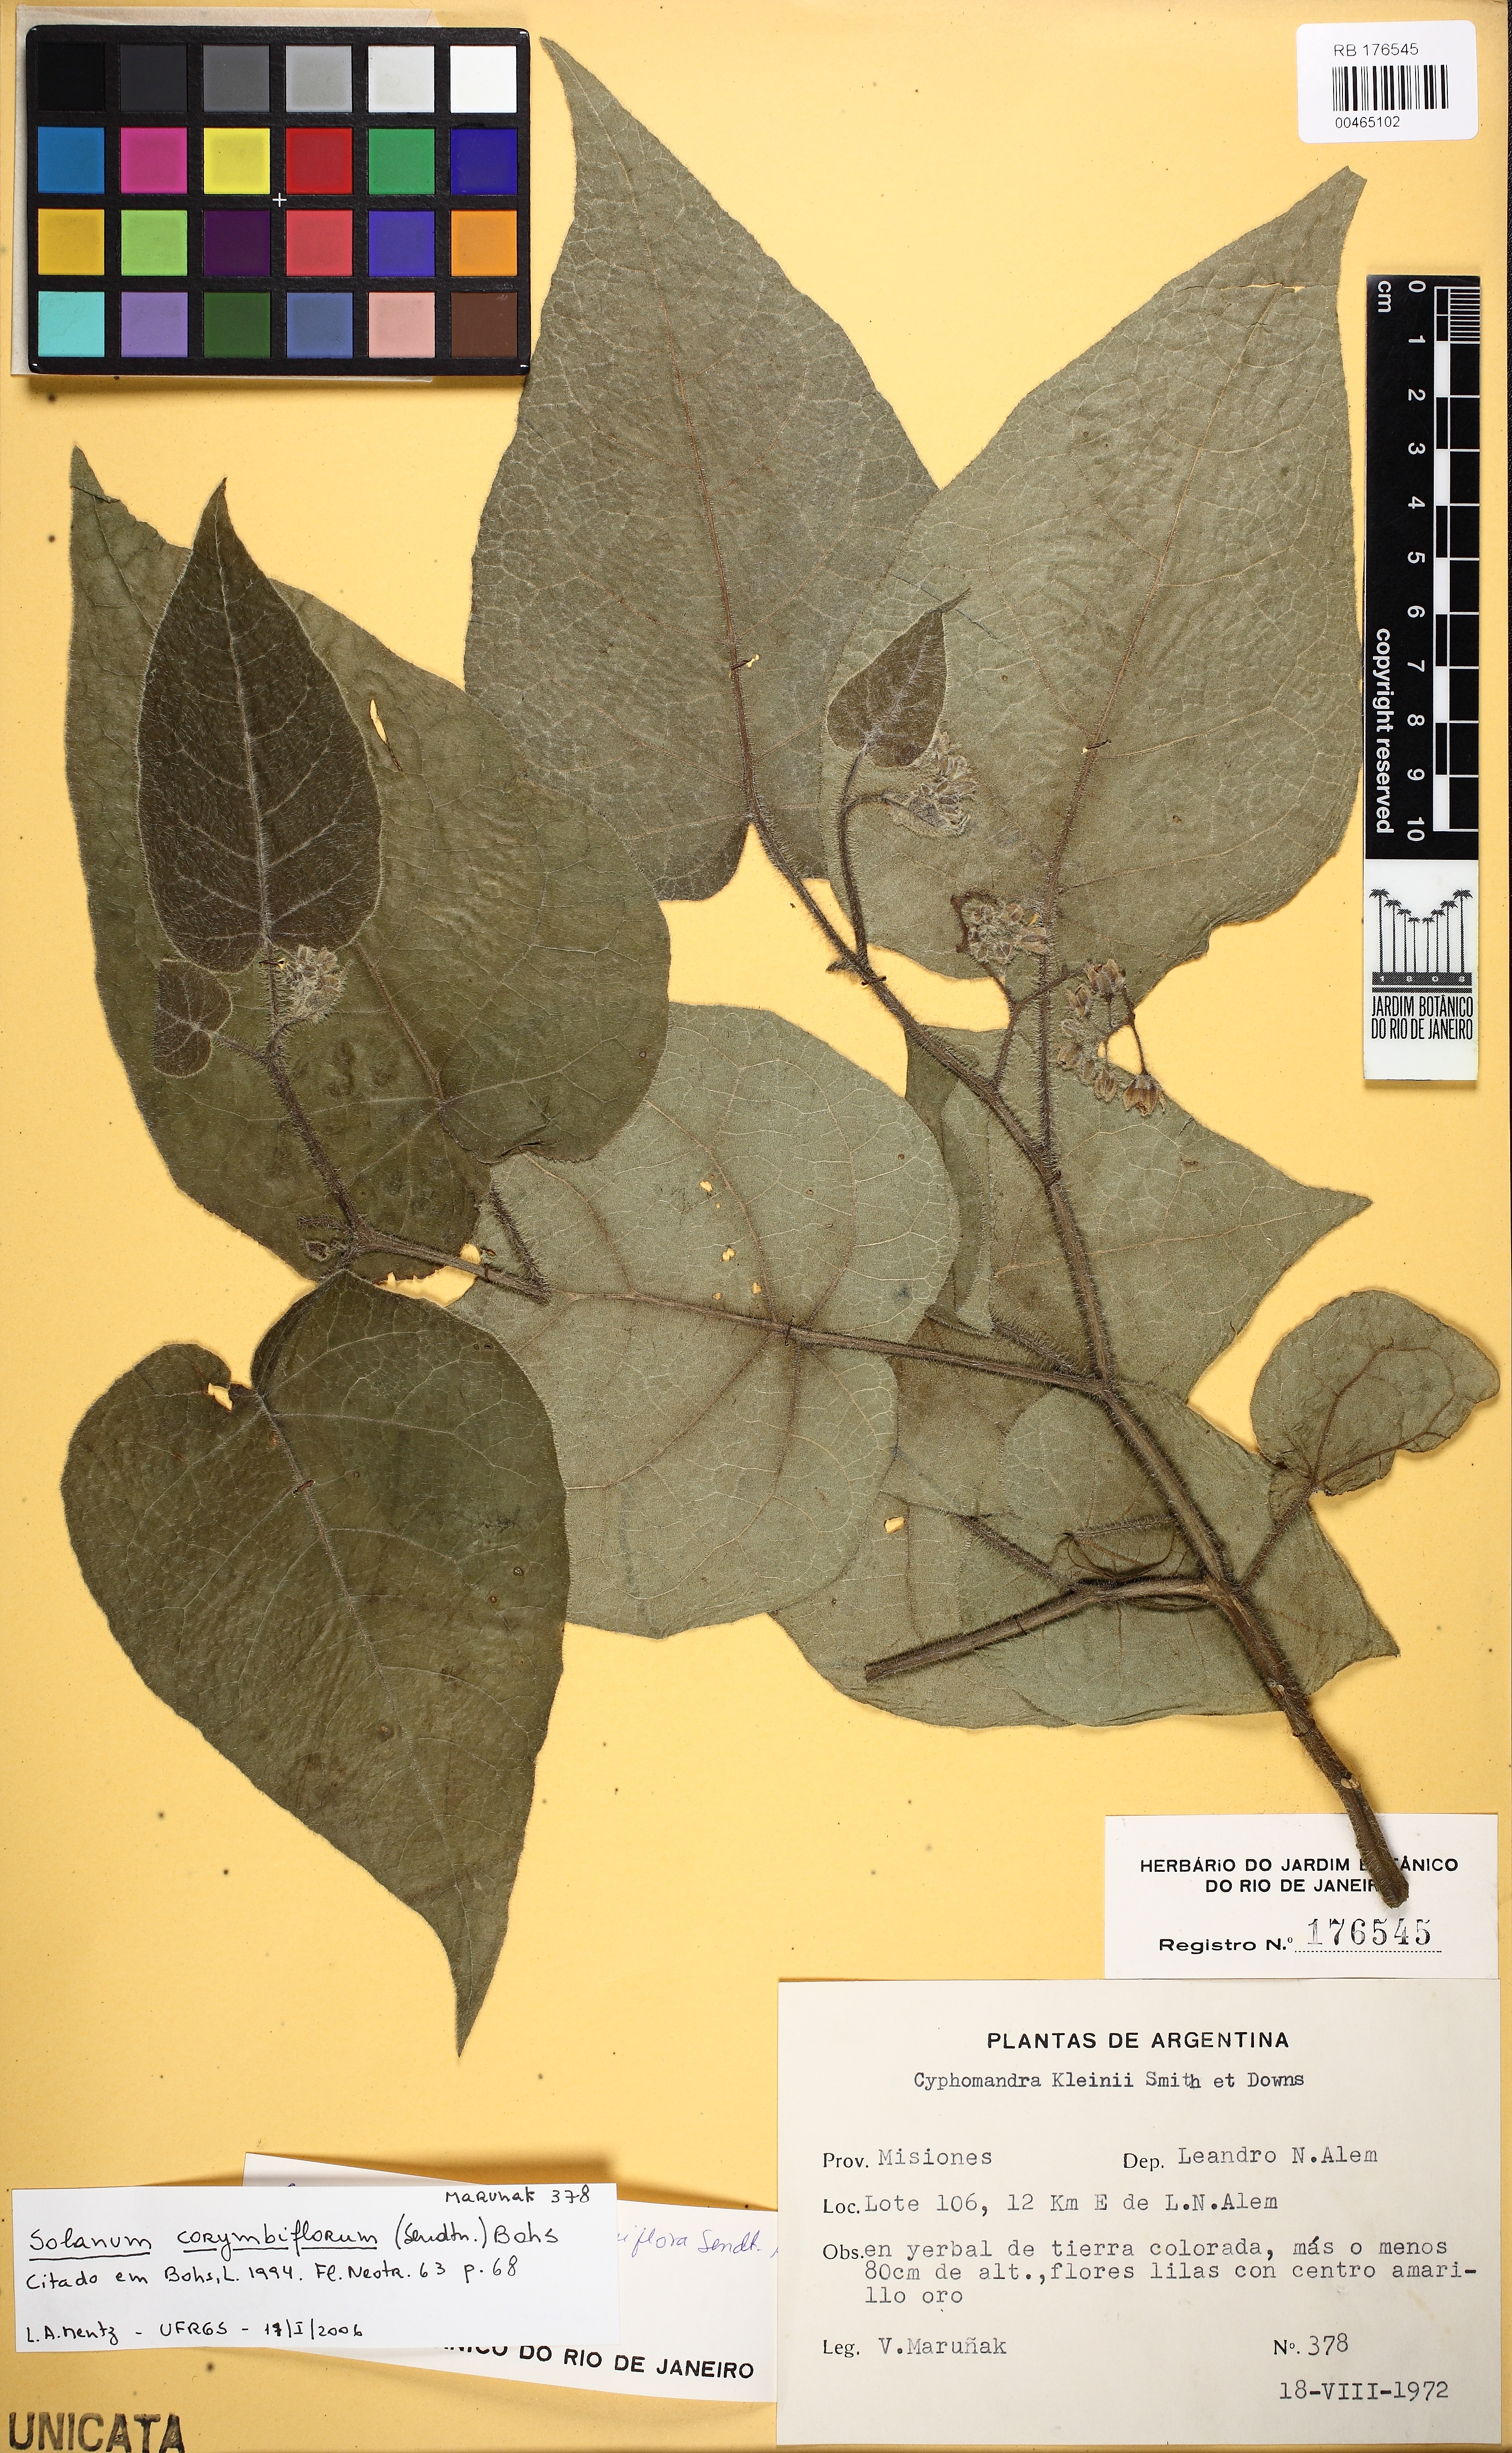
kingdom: Plantae
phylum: Tracheophyta
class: Magnoliopsida
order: Solanales
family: Solanaceae
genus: Solanum
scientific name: Solanum corymbiflorum
